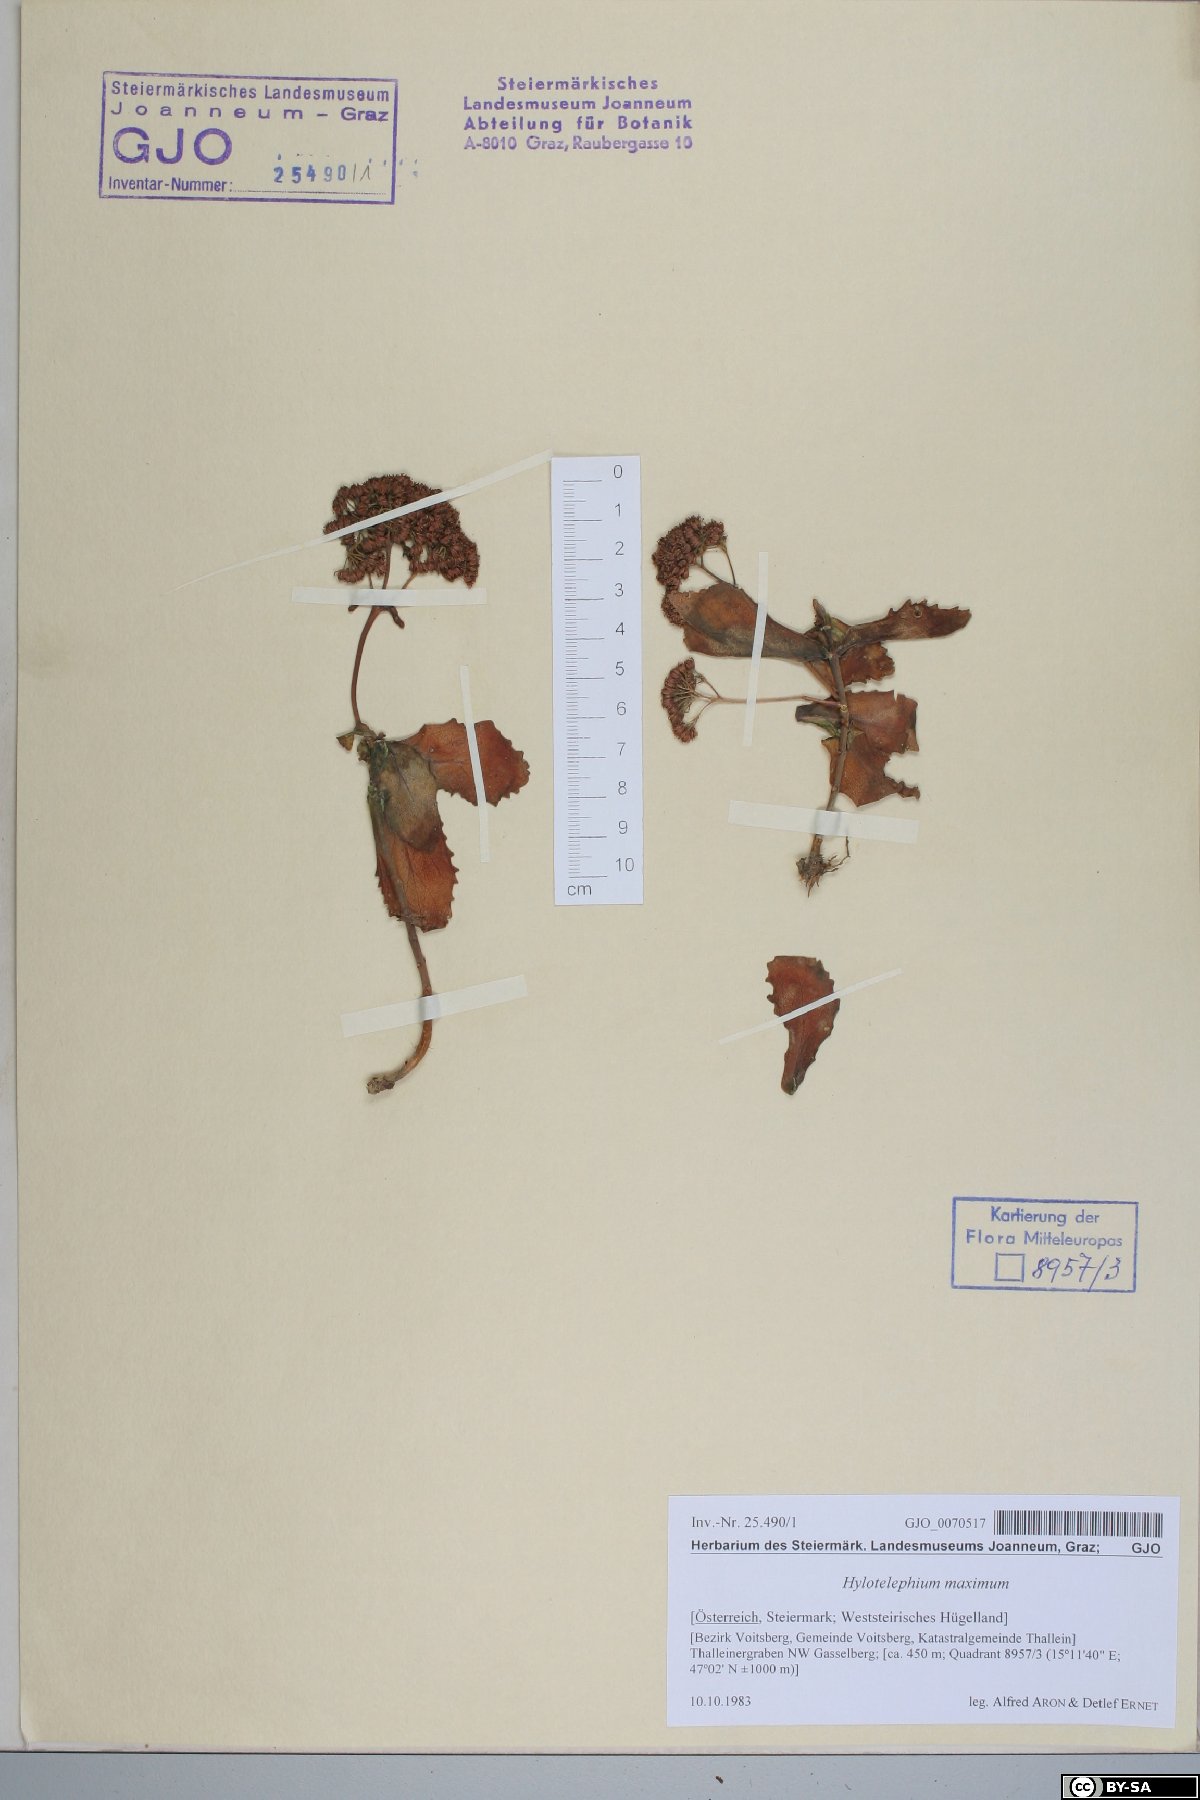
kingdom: Plantae
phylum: Tracheophyta
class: Magnoliopsida
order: Saxifragales
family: Crassulaceae
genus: Hylotelephium
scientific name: Hylotelephium maximum
